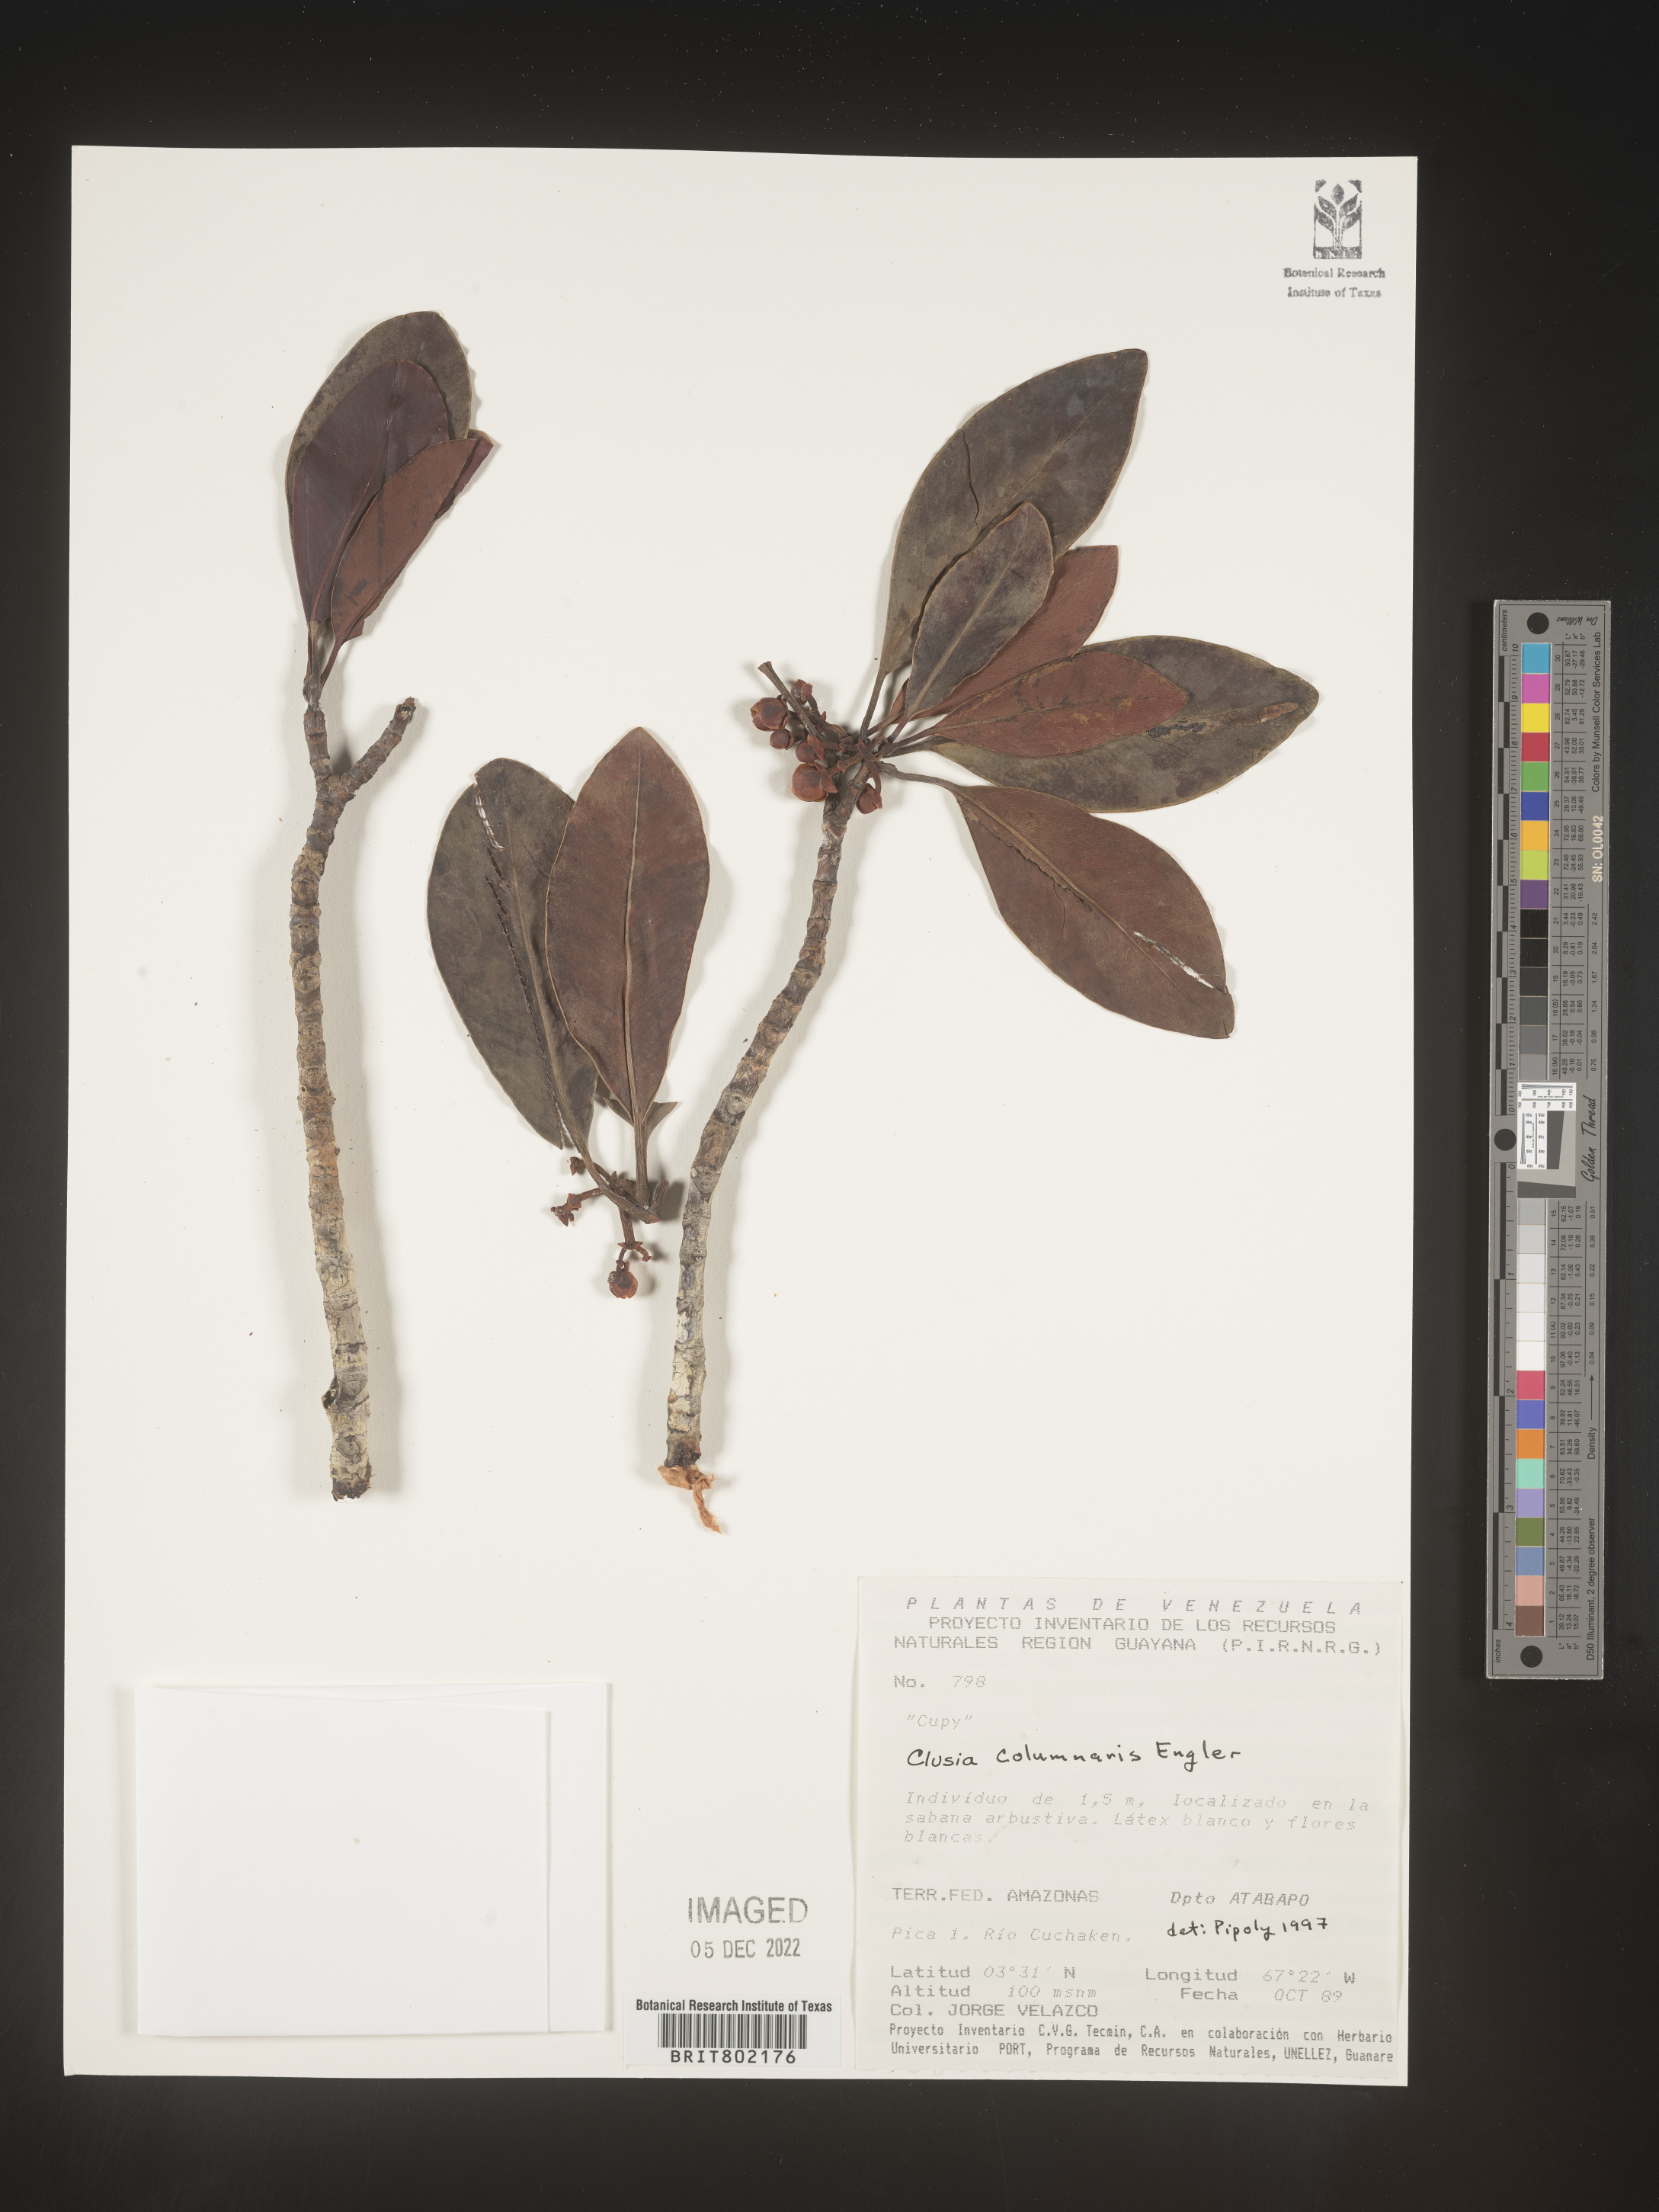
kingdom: Plantae
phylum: Tracheophyta
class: Magnoliopsida
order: Malpighiales
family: Clusiaceae
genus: Clusia
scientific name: Clusia columnaris
